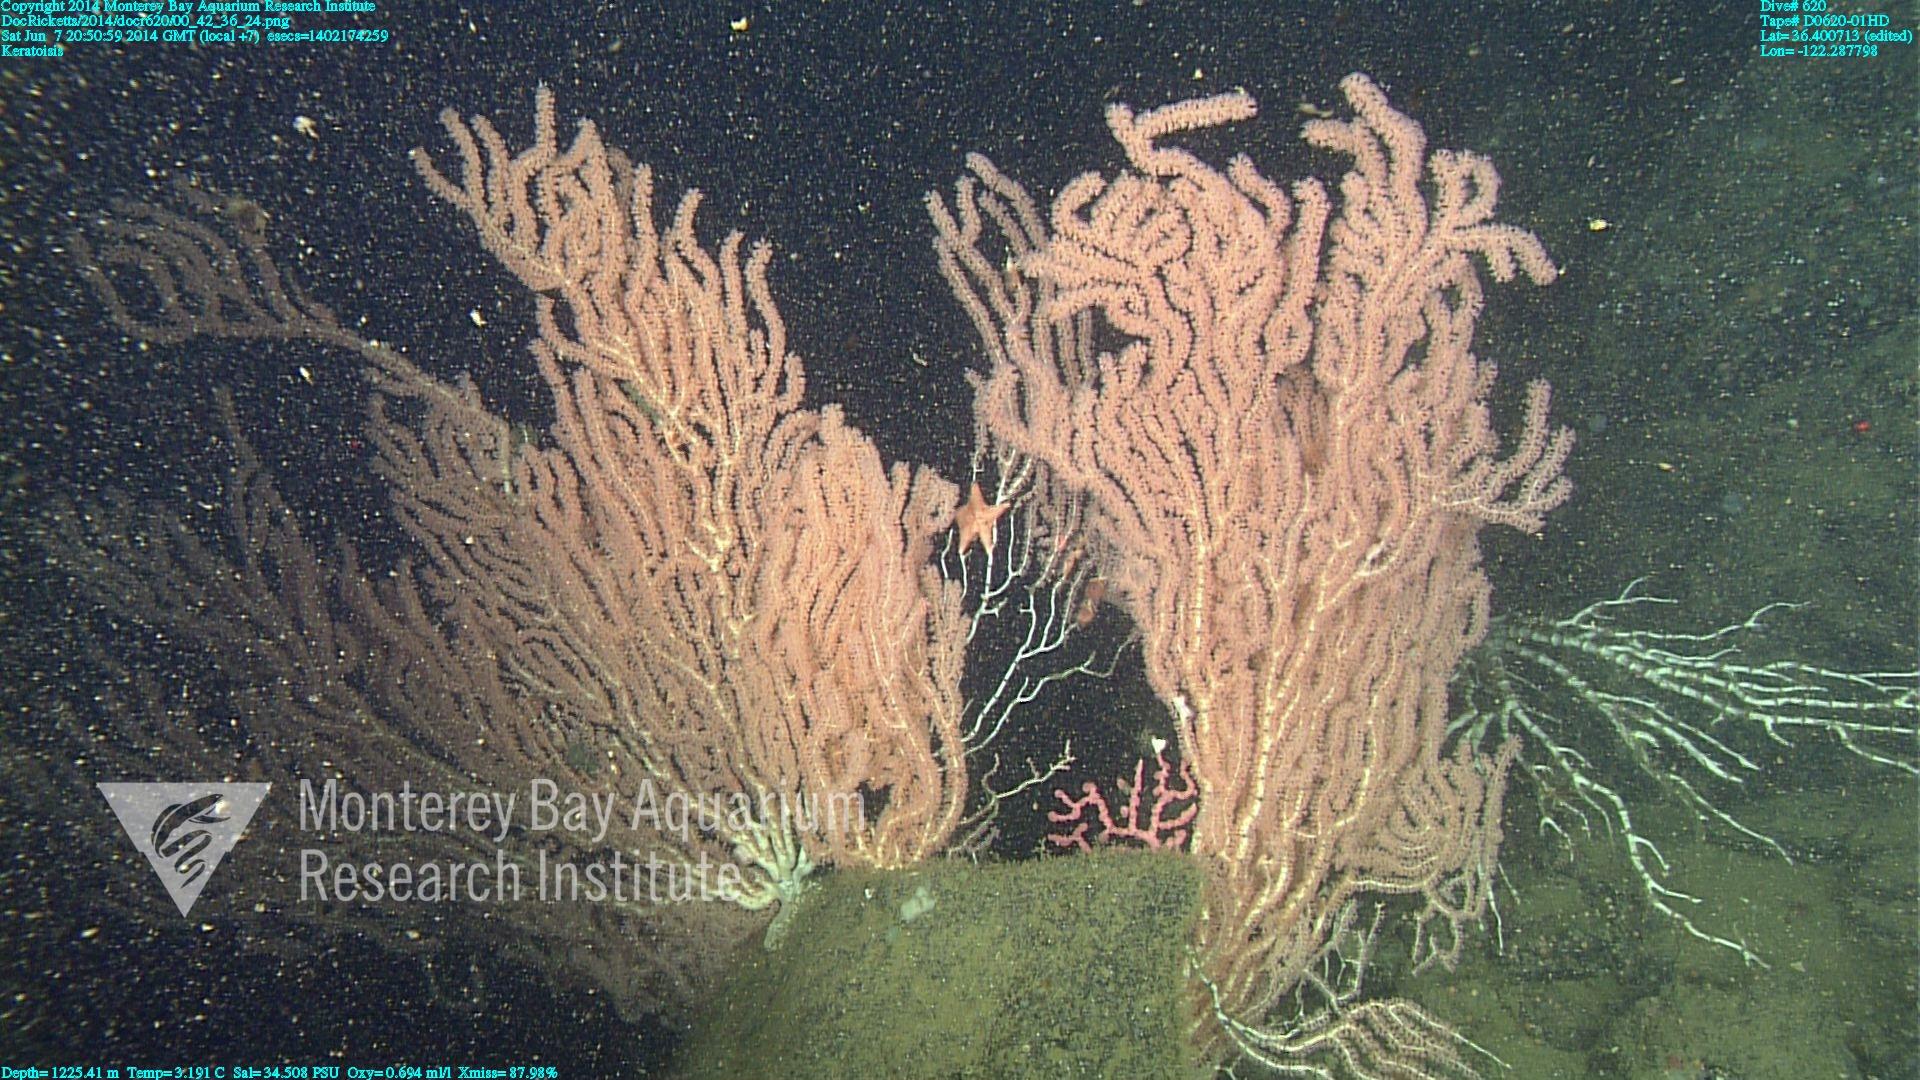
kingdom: Animalia
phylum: Cnidaria
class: Anthozoa
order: Scleralcyonacea
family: Keratoisididae
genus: Keratoisis
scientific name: Keratoisis
